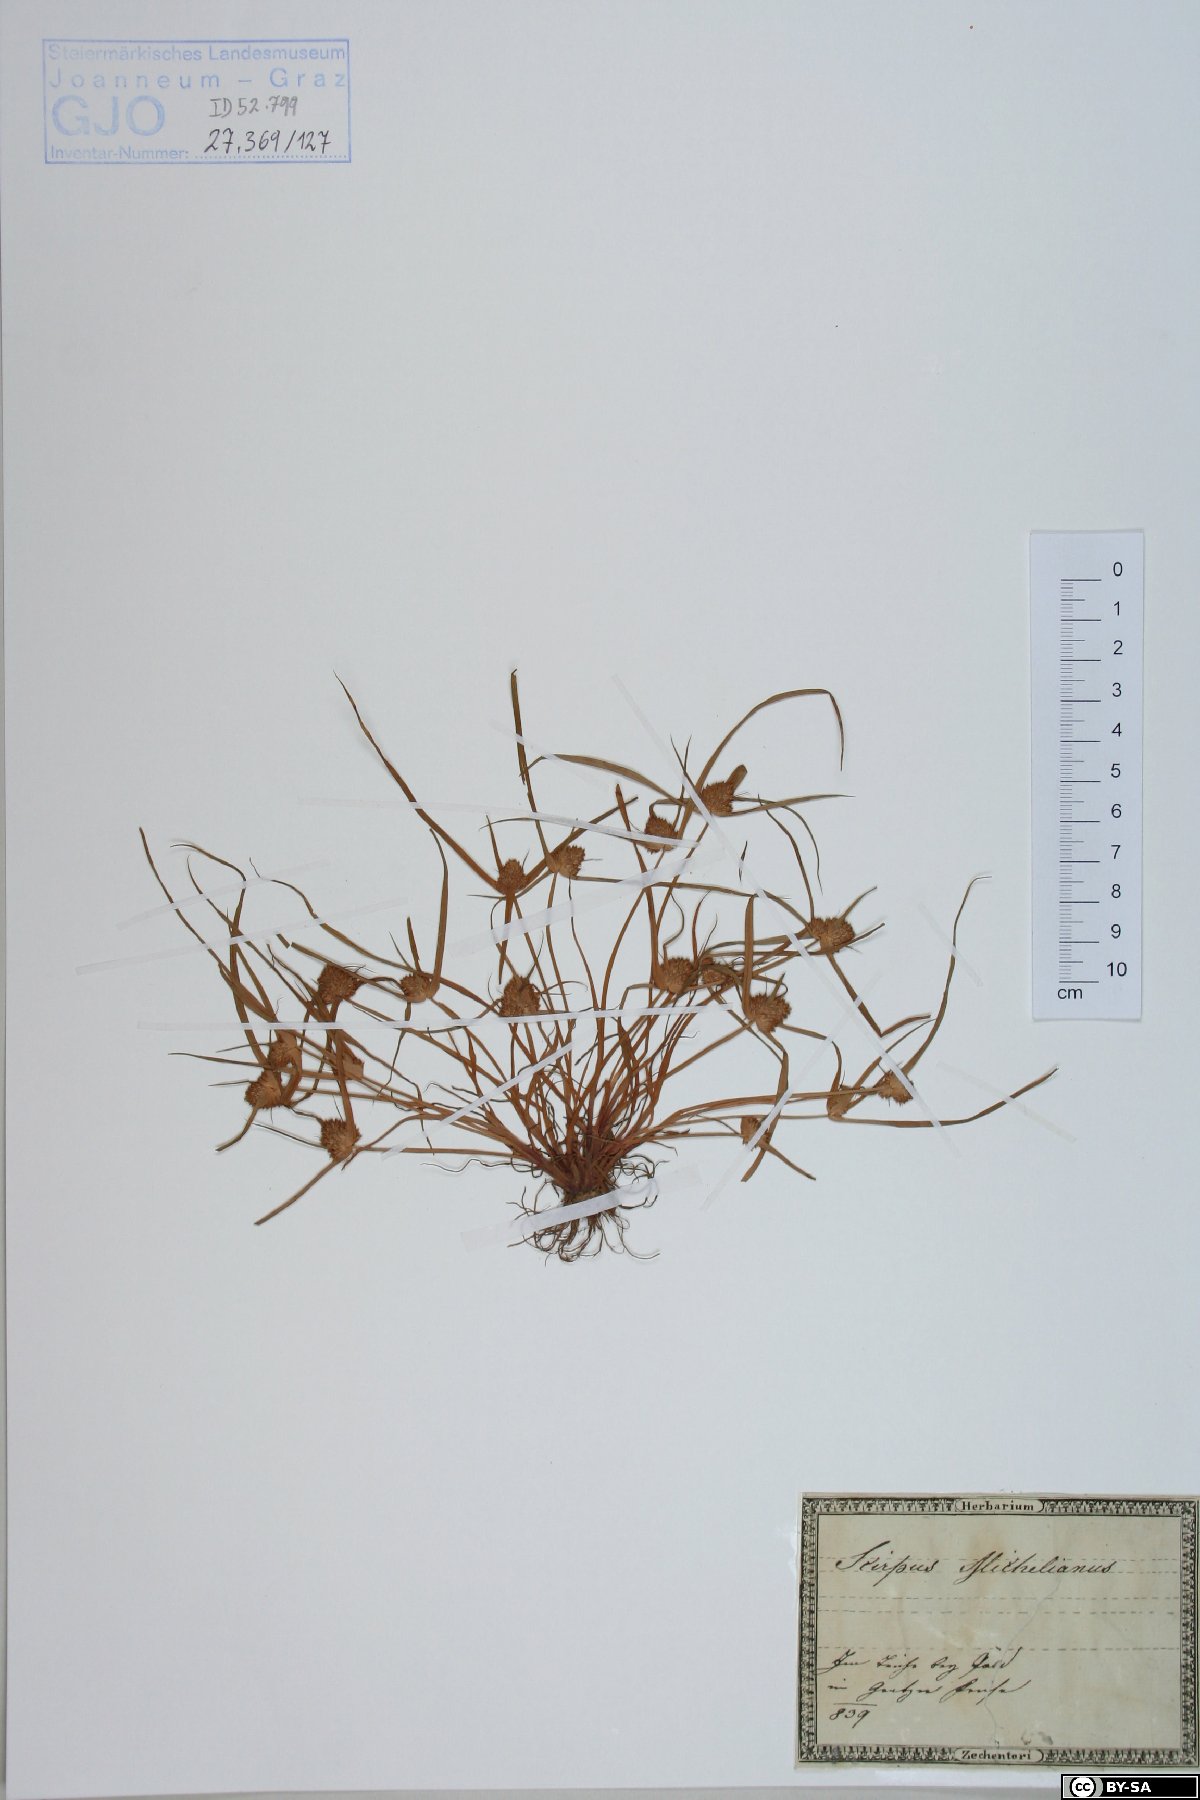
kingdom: Plantae
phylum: Tracheophyta
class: Liliopsida
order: Poales
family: Cyperaceae
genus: Cyperus
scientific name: Cyperus michelianus
